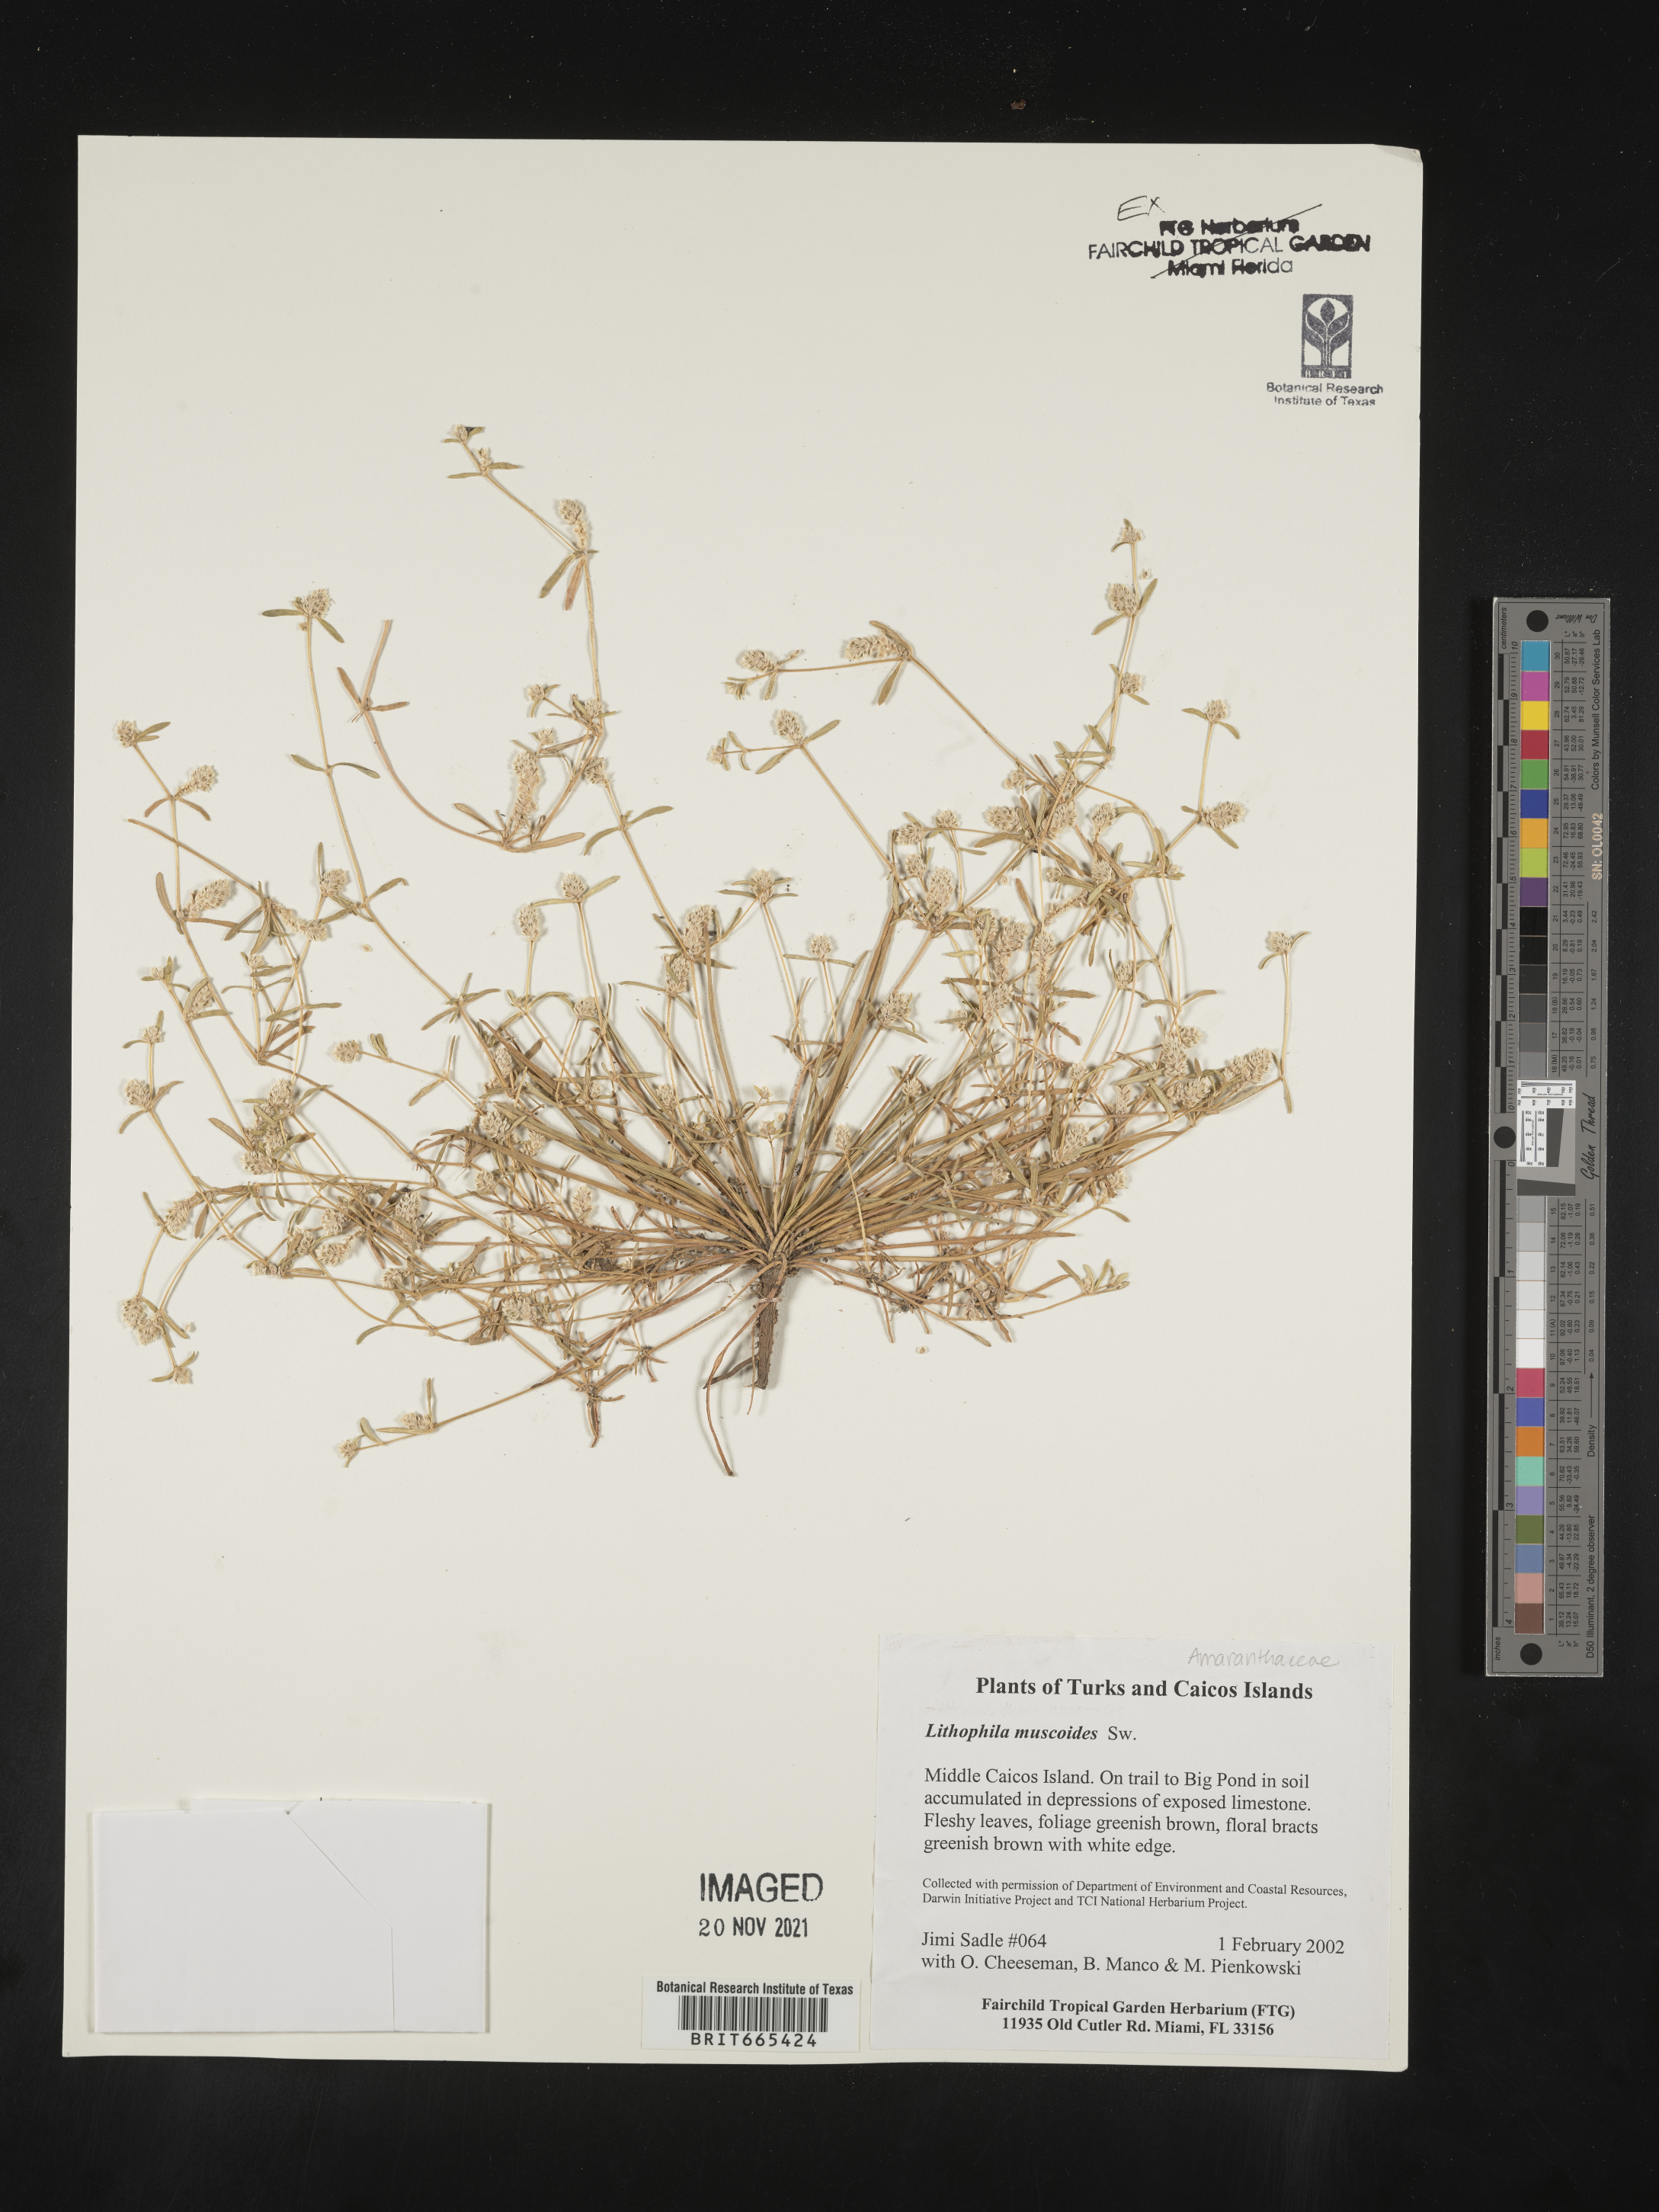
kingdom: Plantae
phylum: Tracheophyta
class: Magnoliopsida
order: Caryophyllales
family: Amaranthaceae
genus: Gomphrena
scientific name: Gomphrena
